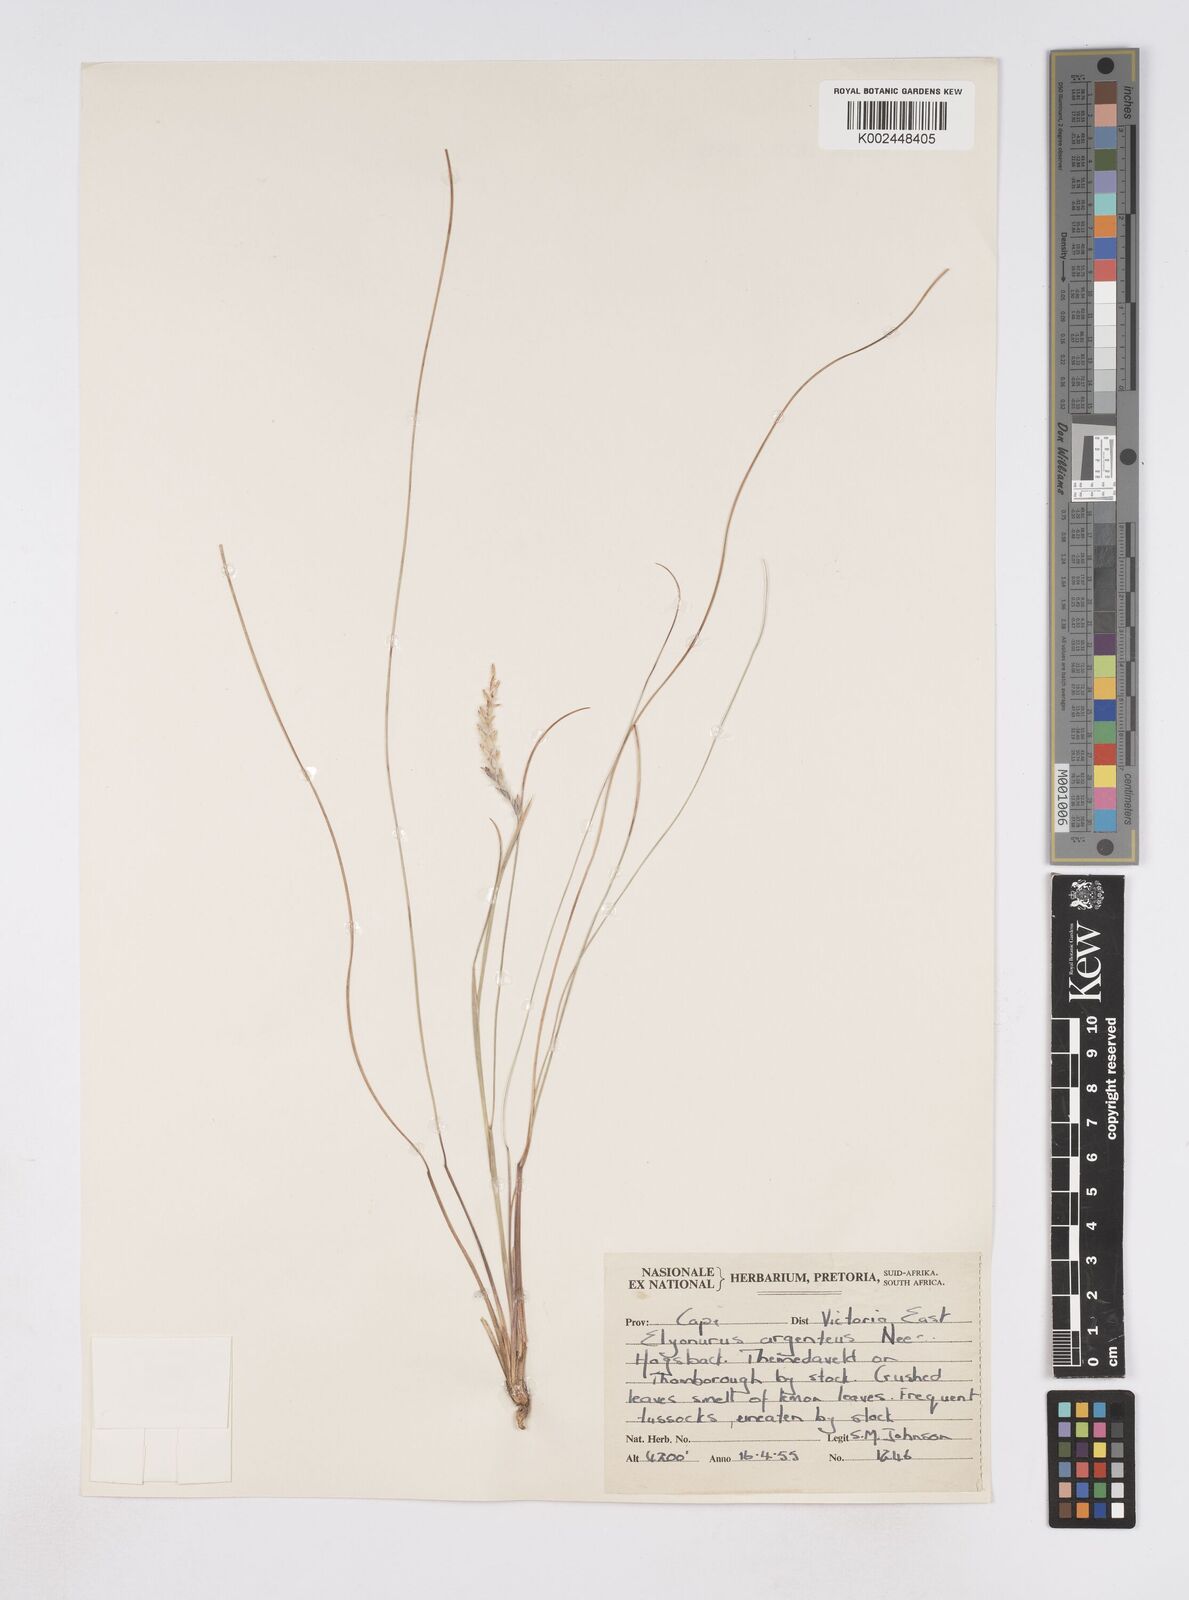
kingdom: Plantae
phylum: Tracheophyta
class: Liliopsida
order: Poales
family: Poaceae
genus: Elionurus
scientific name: Elionurus muticus
